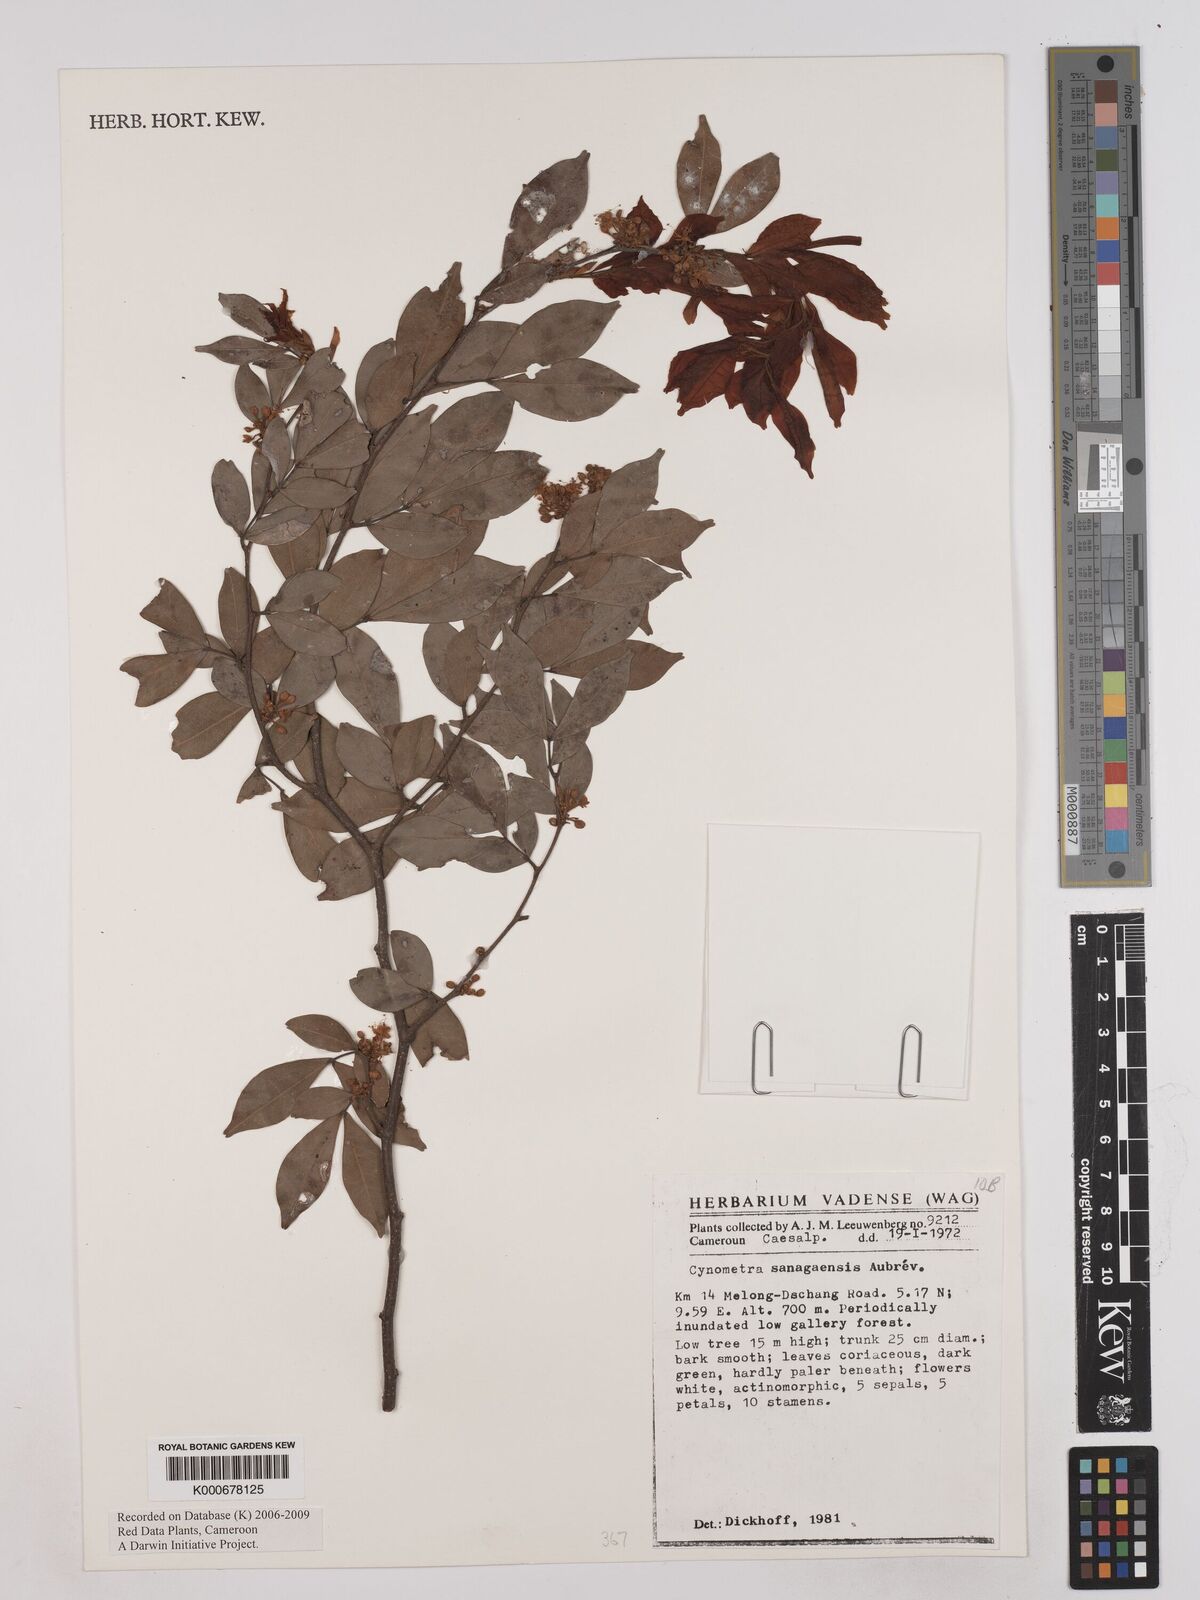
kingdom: Plantae
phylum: Tracheophyta
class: Magnoliopsida
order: Fabales
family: Fabaceae
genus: Cynometra
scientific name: Cynometra
